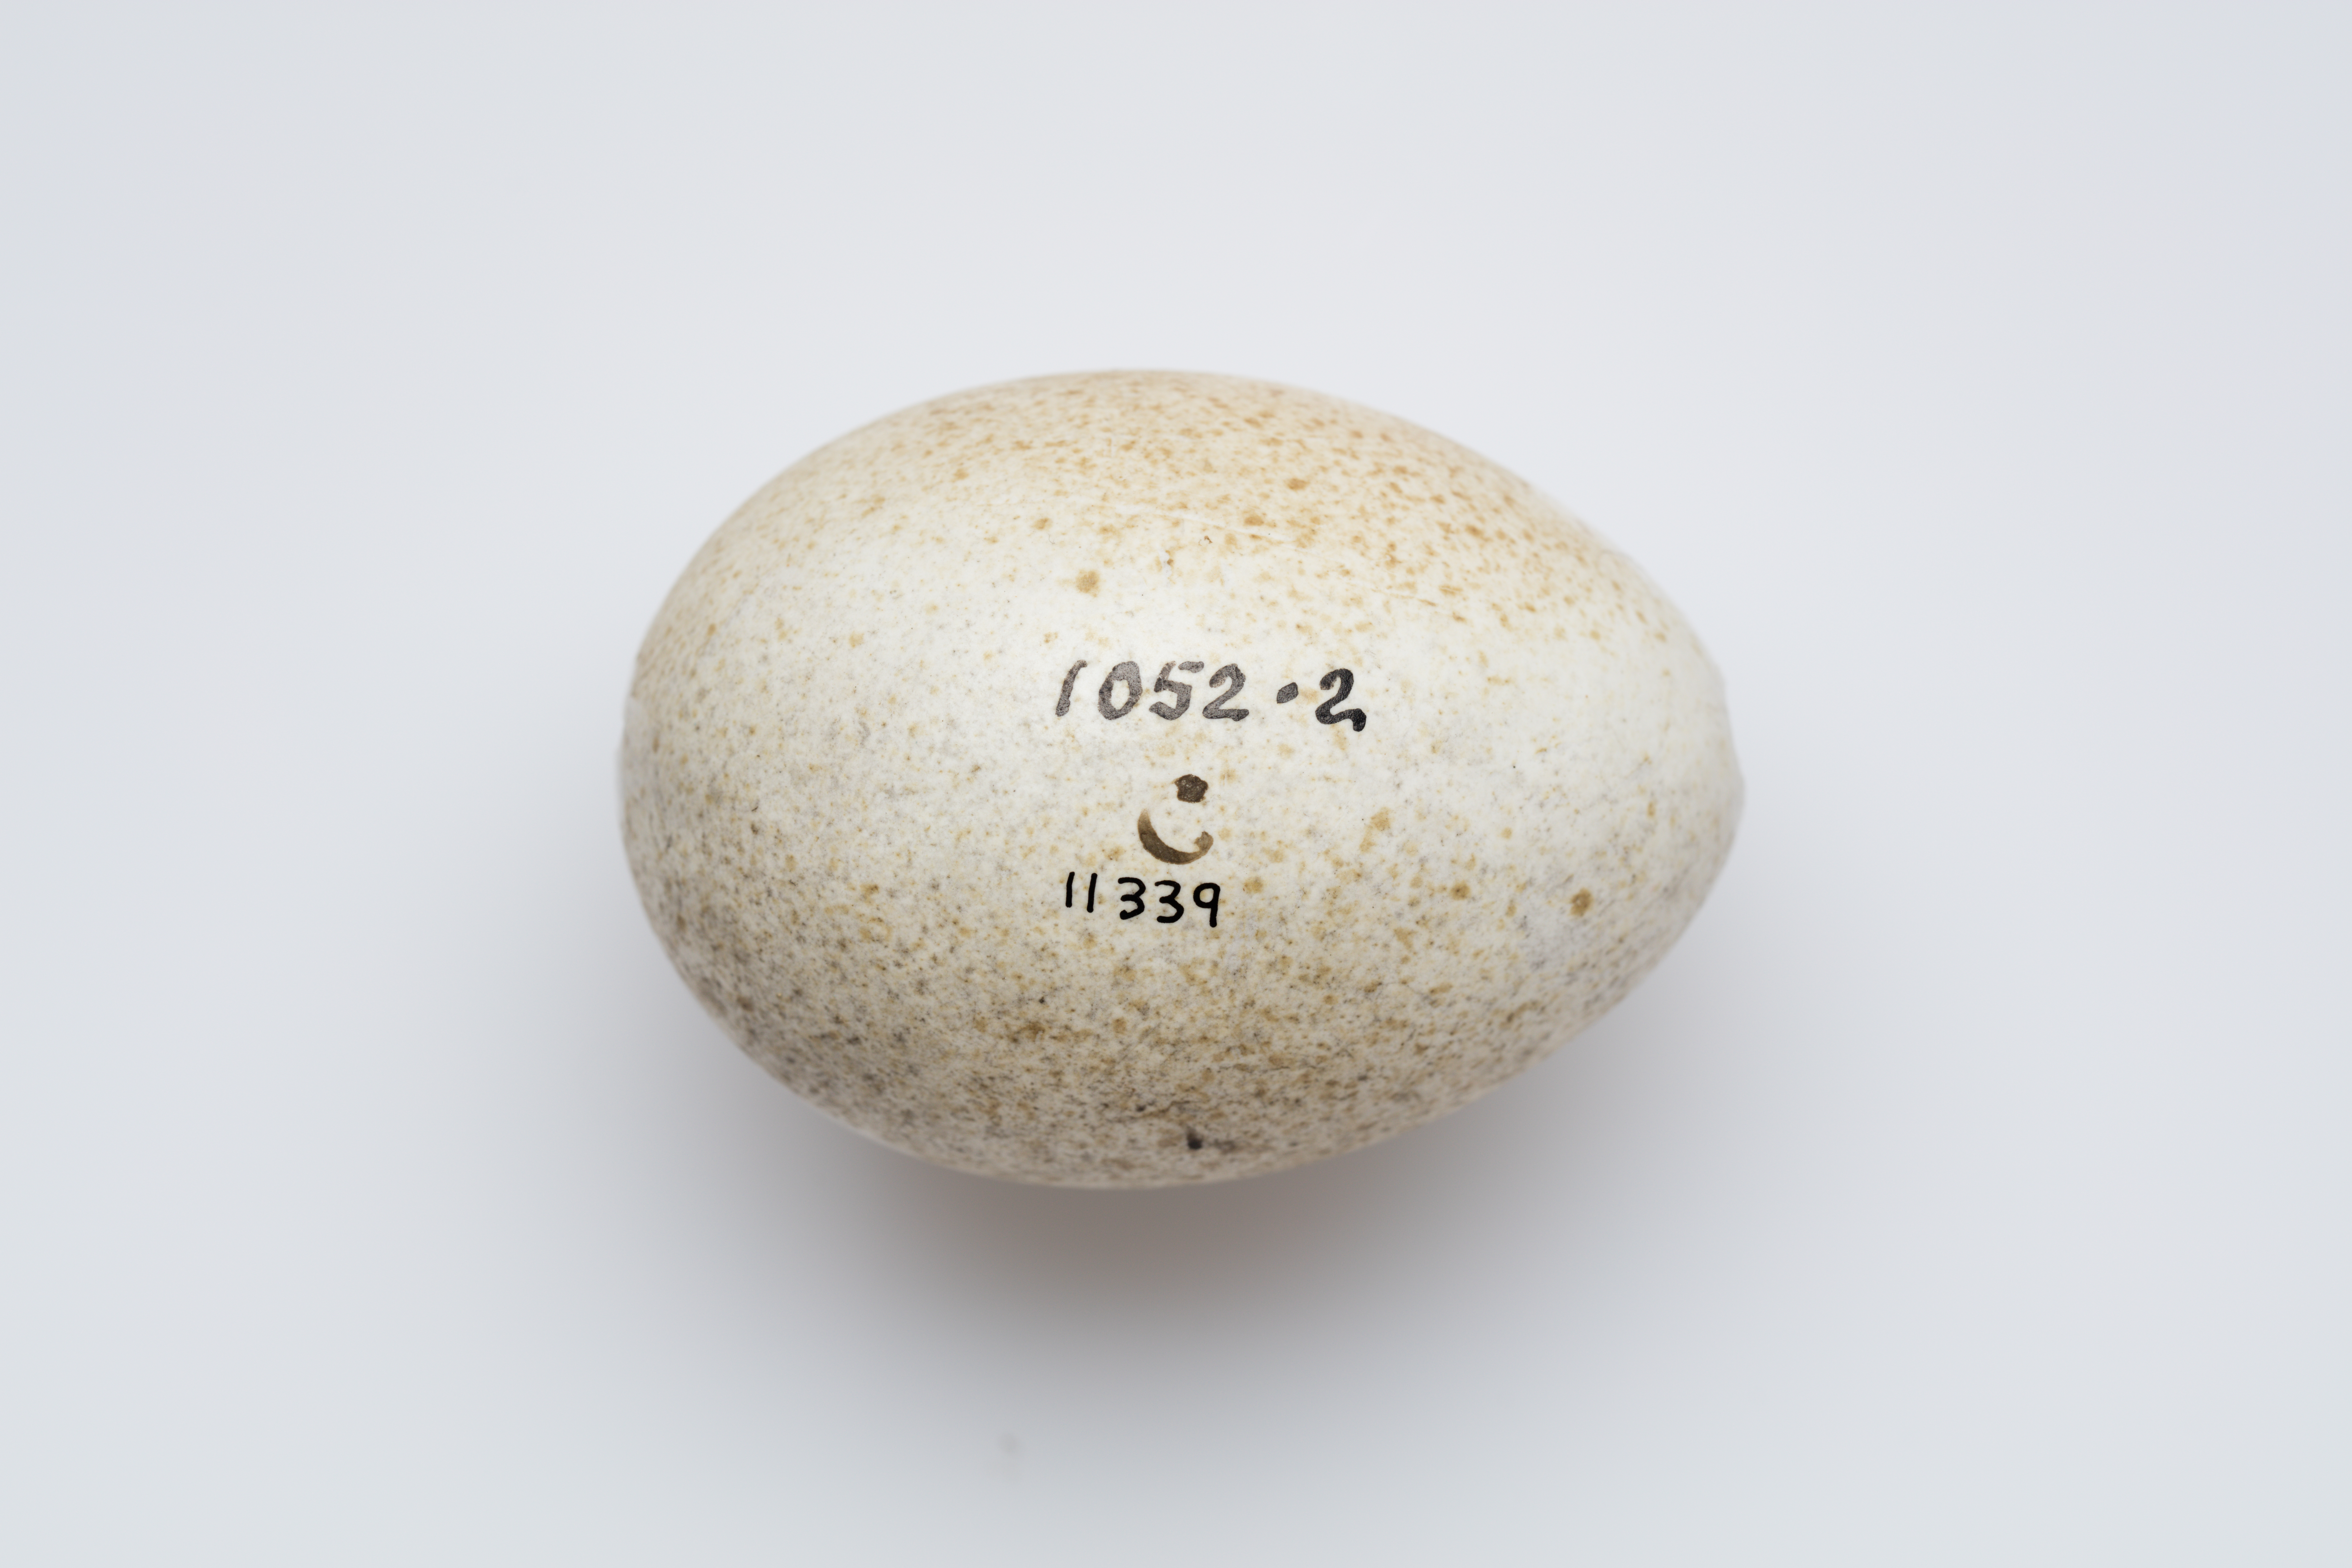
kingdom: Animalia
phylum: Chordata
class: Aves
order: Anseriformes
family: Anatidae
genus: Mergus
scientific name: Mergus merganser
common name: Common merganser
